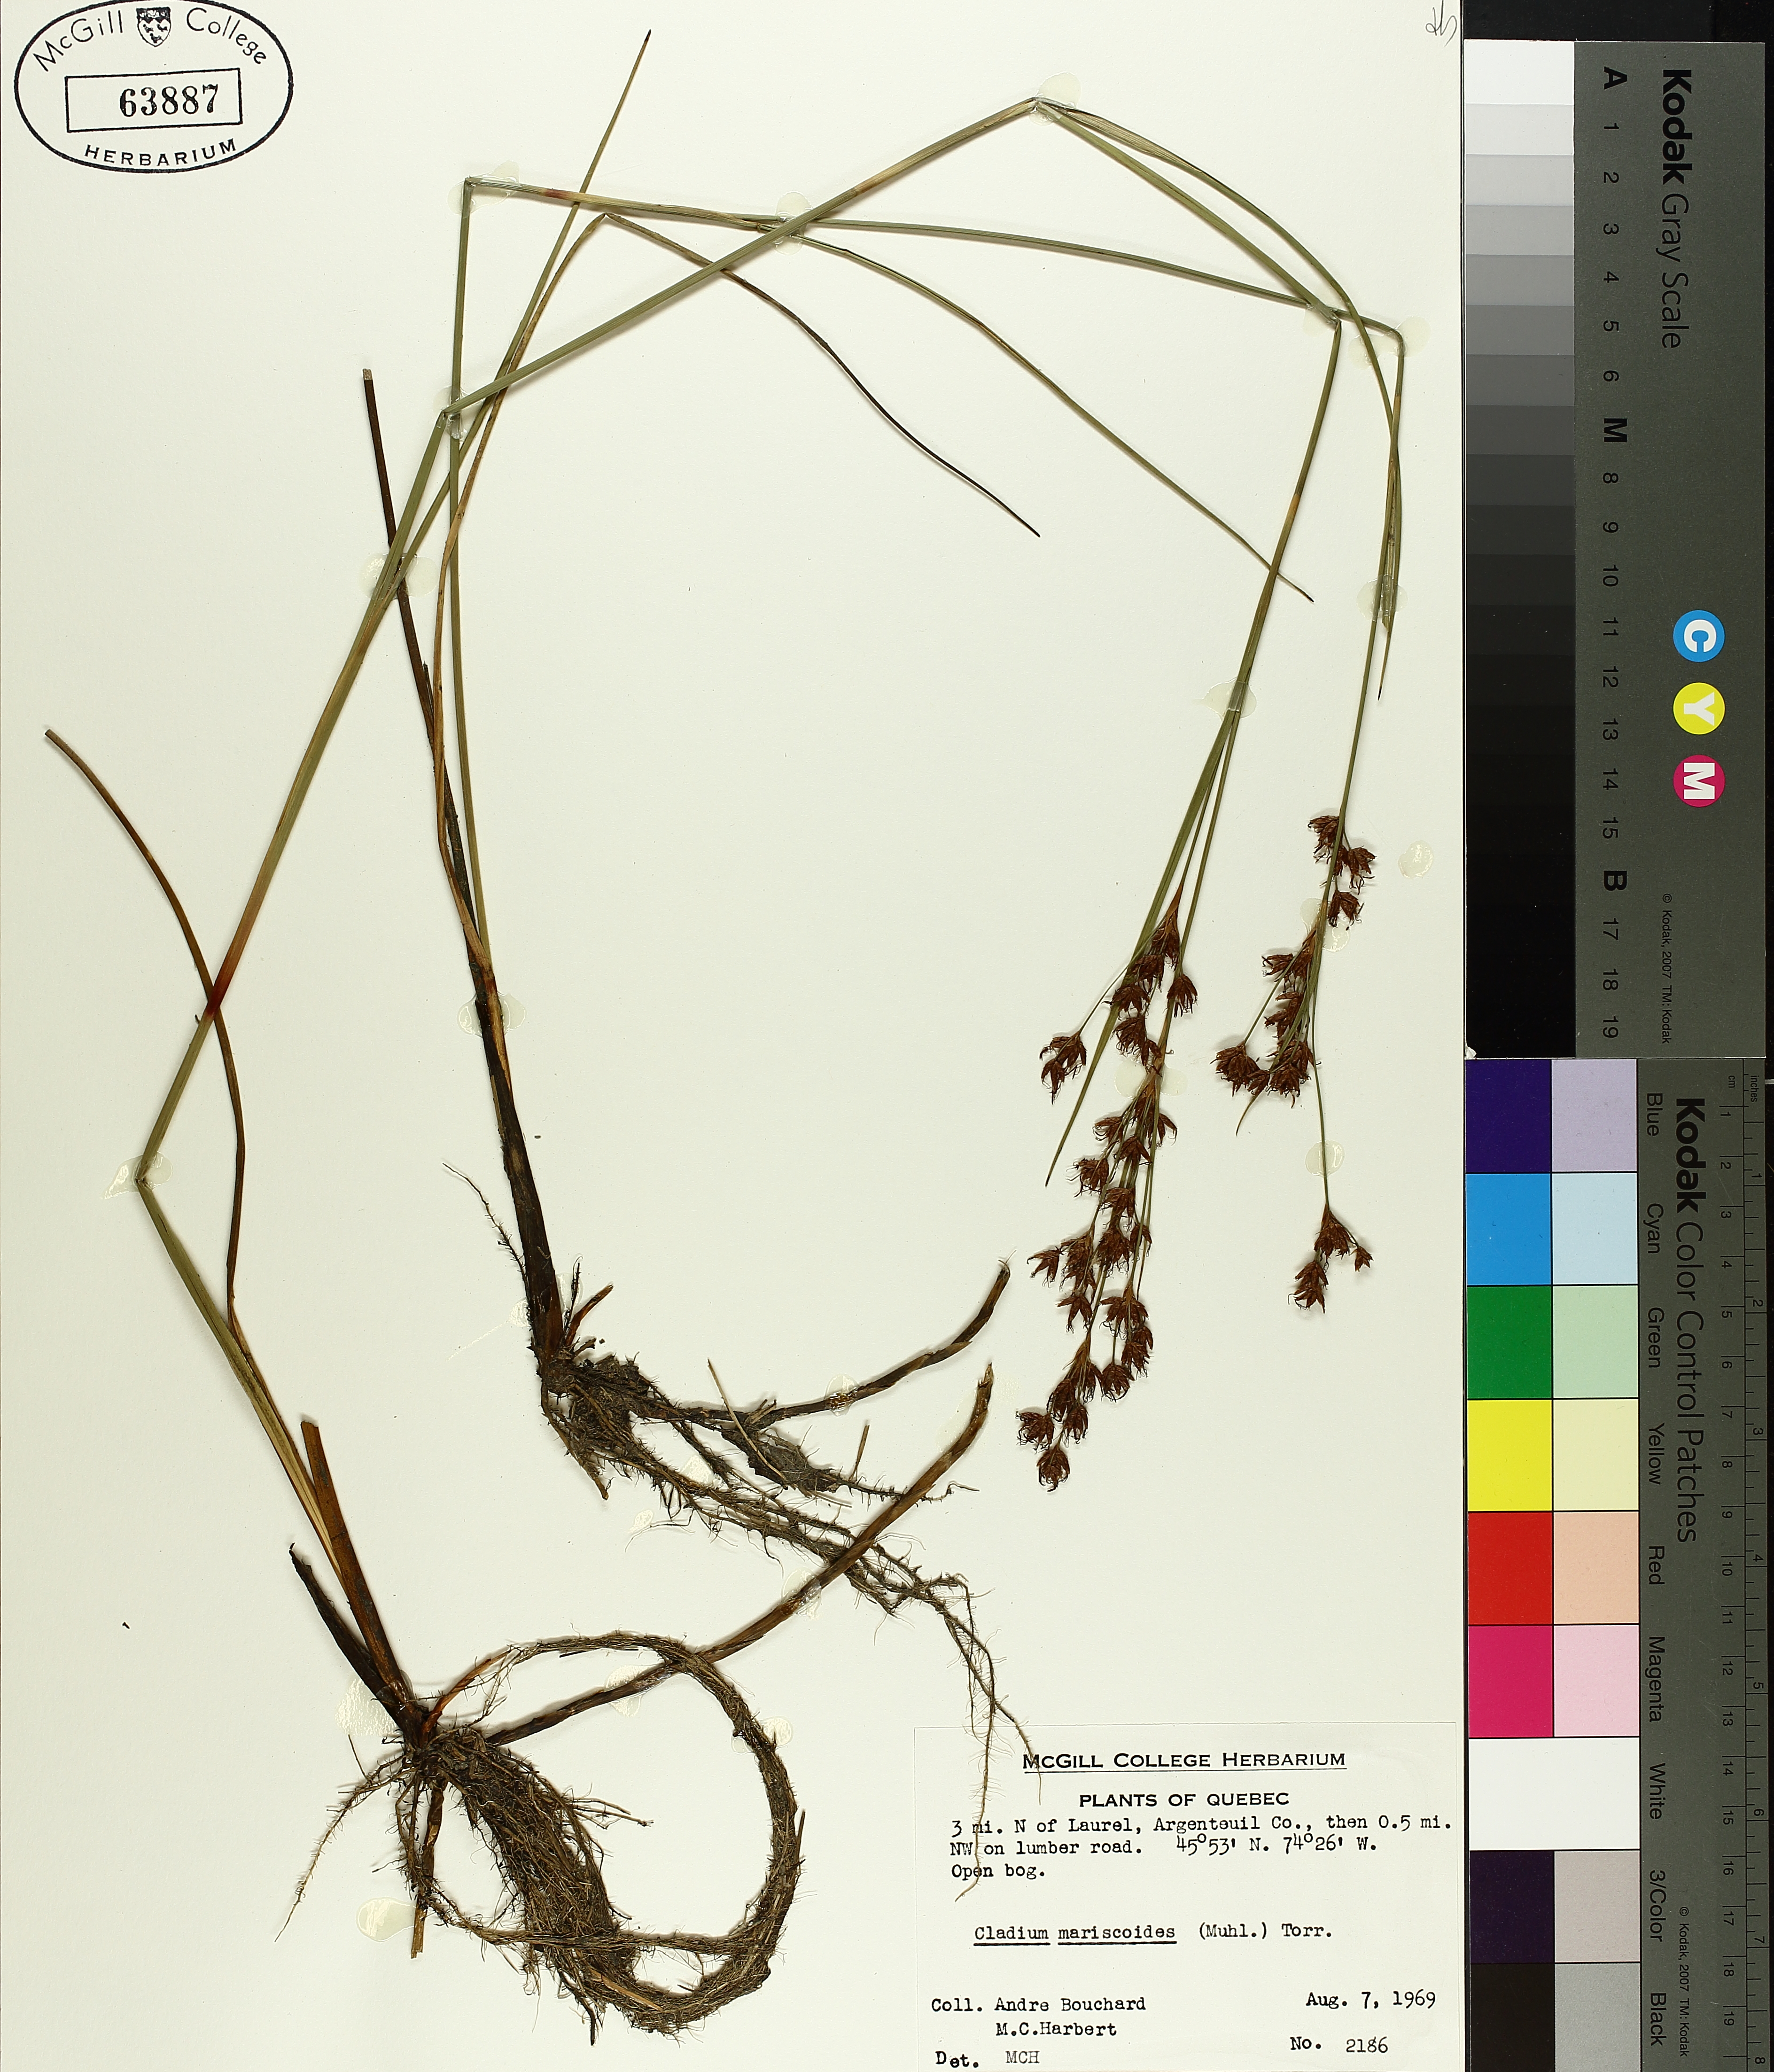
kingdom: Plantae
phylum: Tracheophyta
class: Liliopsida
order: Poales
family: Cyperaceae
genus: Cladium
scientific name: Cladium mariscoides
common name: Smooth sawgrass
